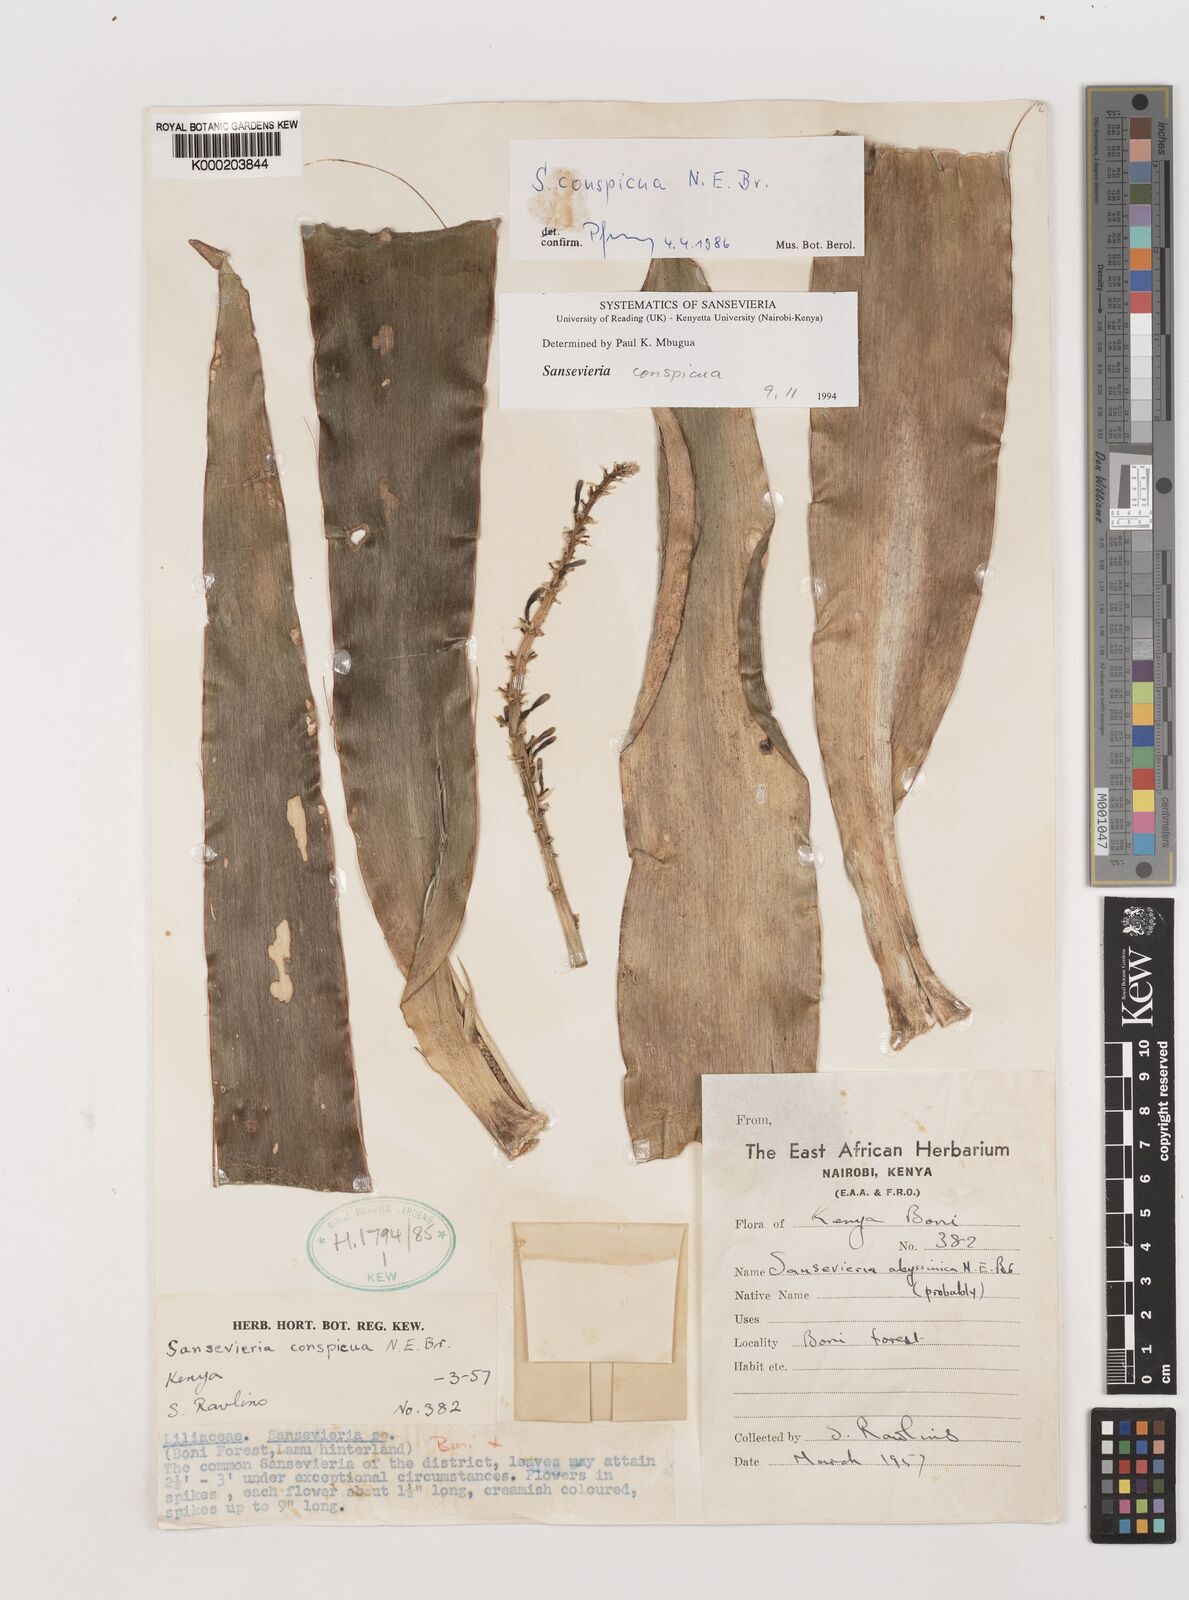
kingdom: Plantae
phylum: Tracheophyta
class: Liliopsida
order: Asparagales
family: Asparagaceae
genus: Dracaena
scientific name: Dracaena conspicua
